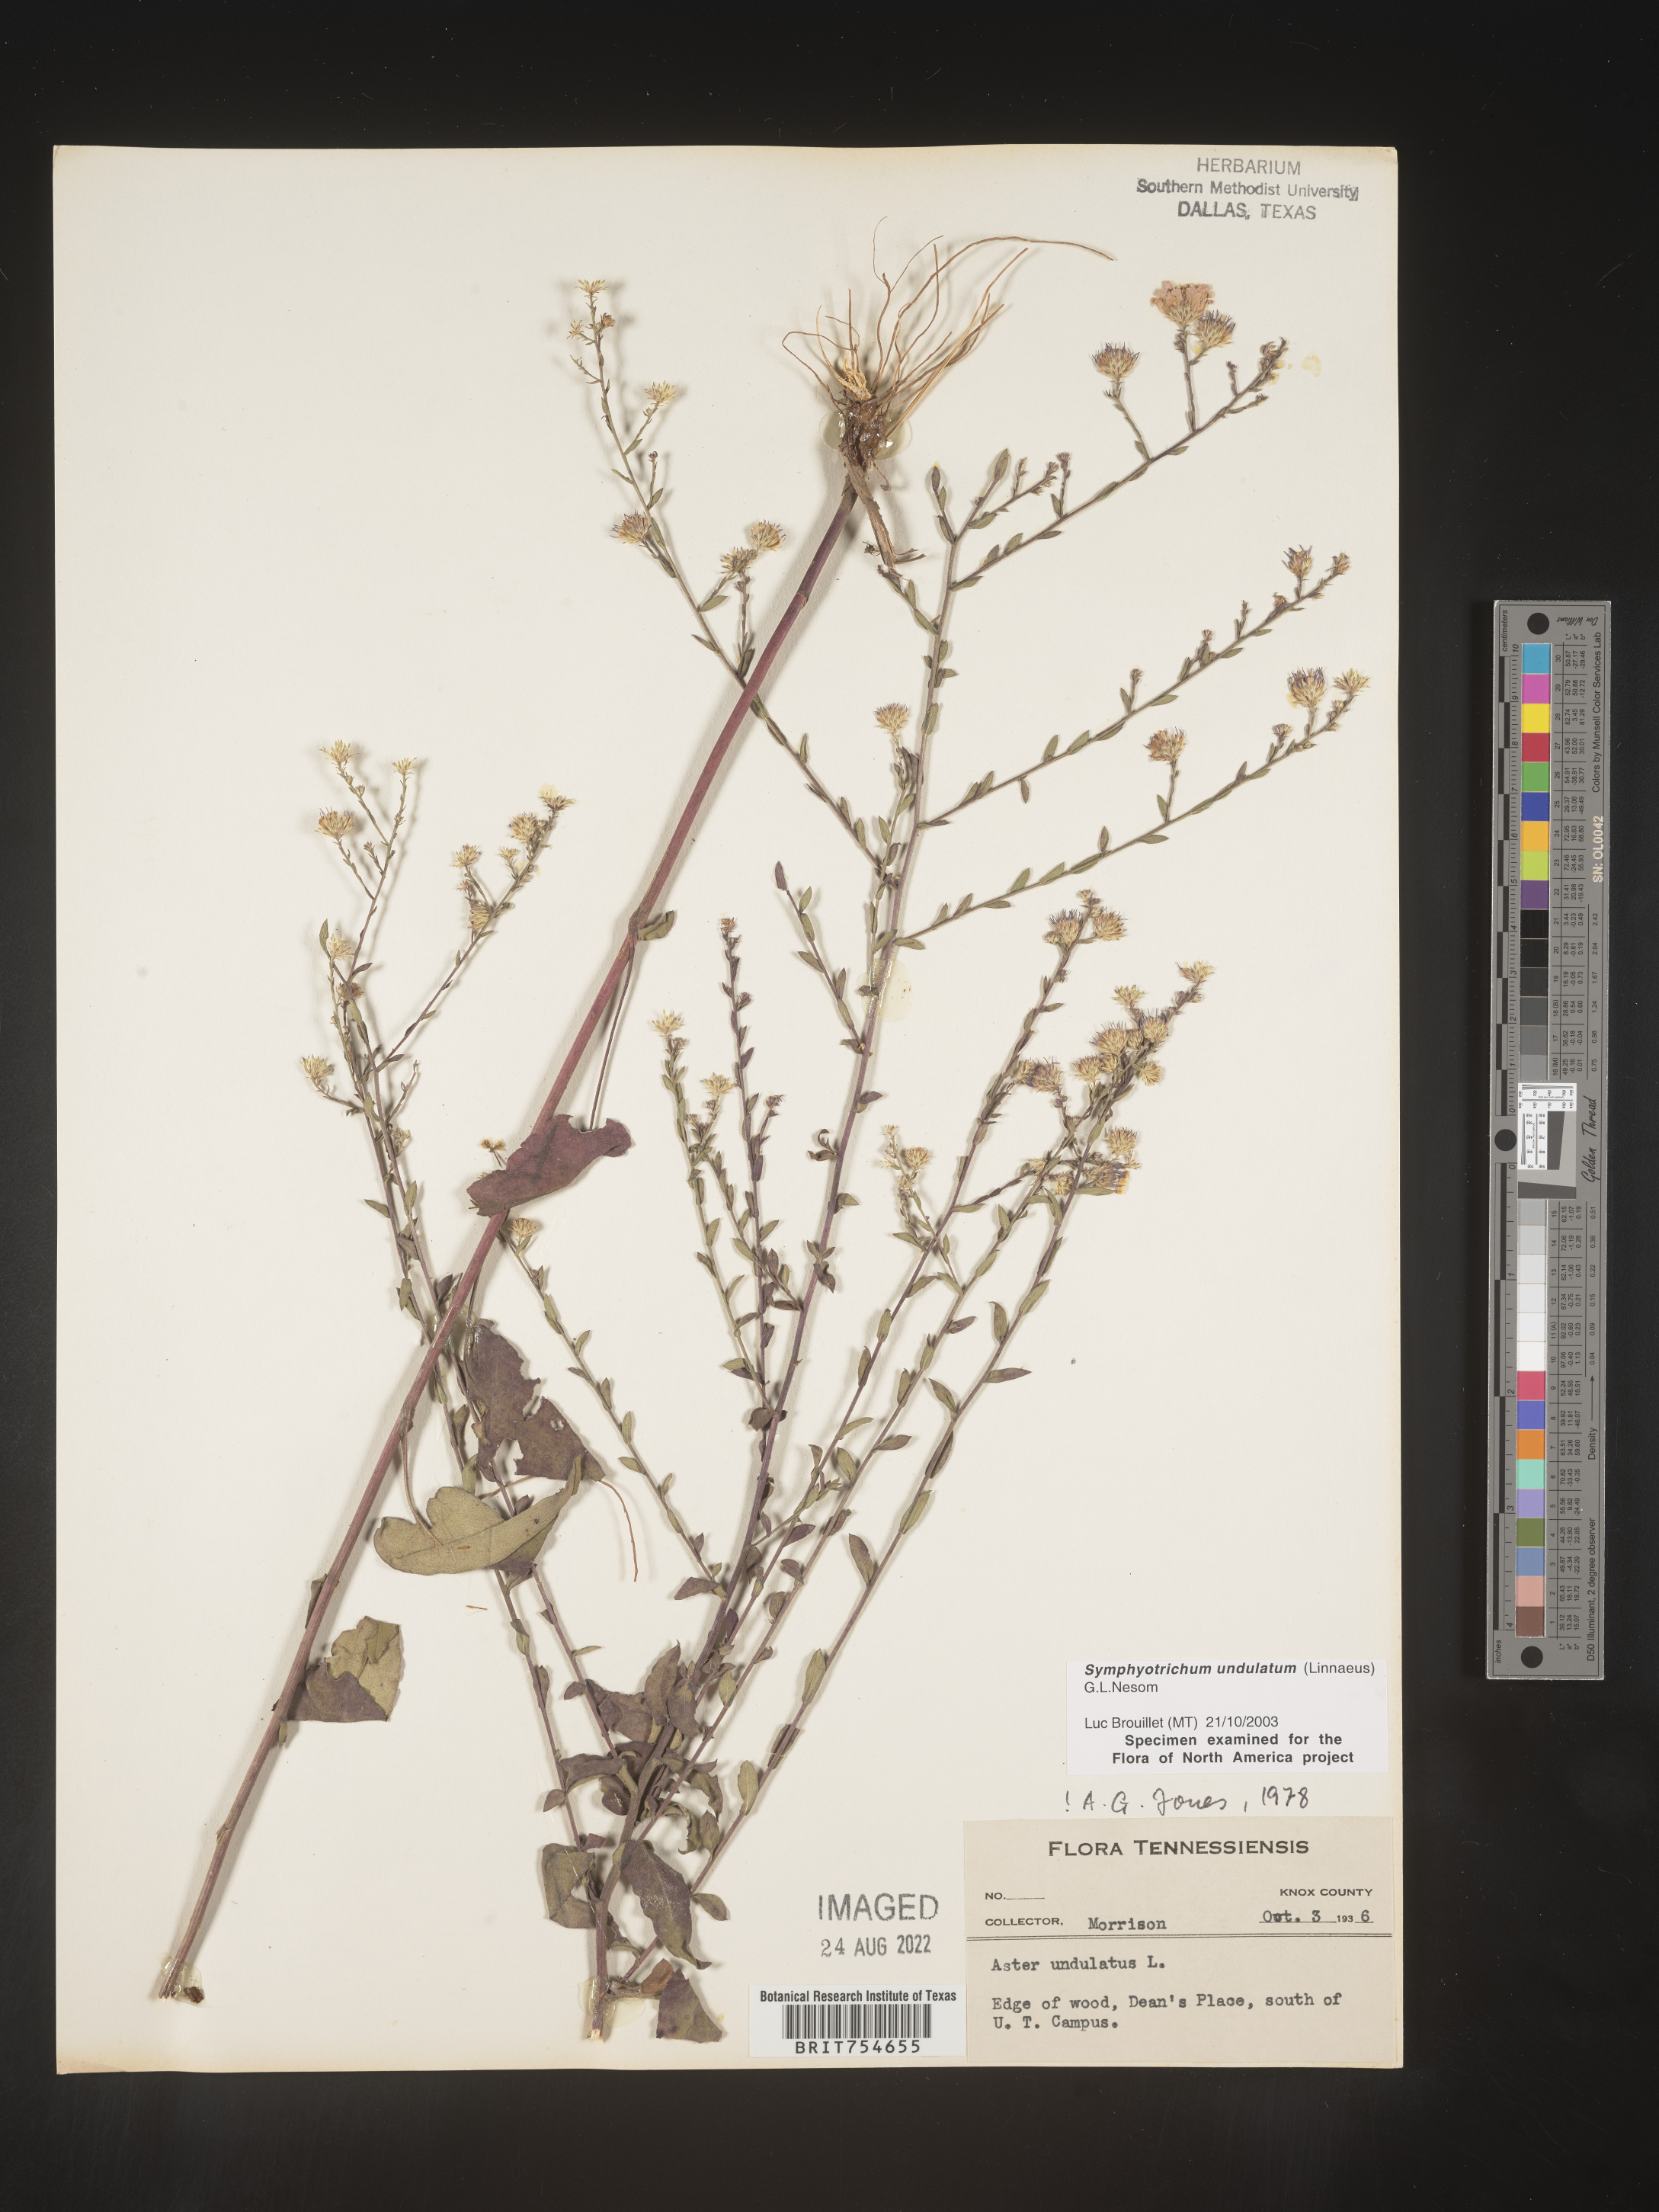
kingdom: Plantae
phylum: Tracheophyta
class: Magnoliopsida
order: Asterales
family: Asteraceae
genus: Symphyotrichum
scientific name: Symphyotrichum undulatum
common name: Clasping heart-leaf aster
